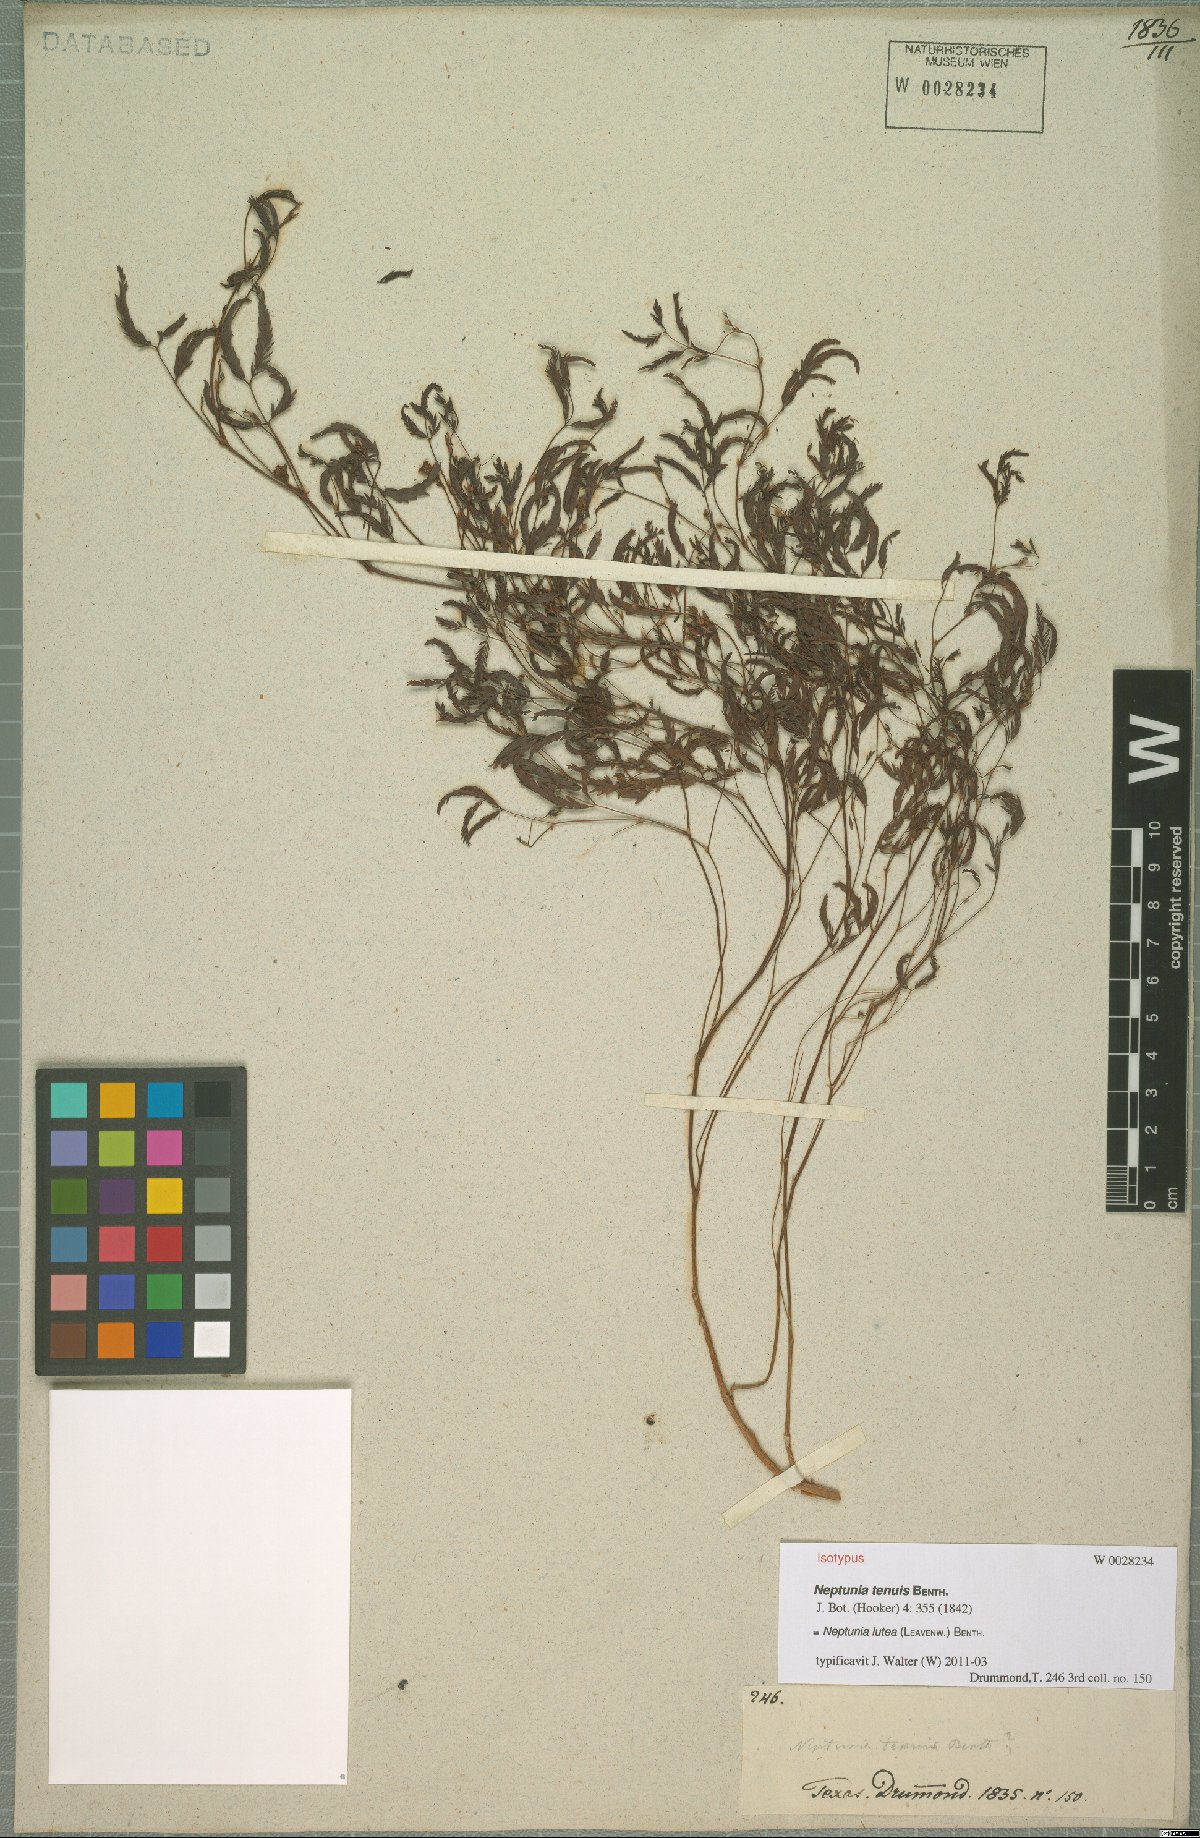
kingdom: Plantae
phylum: Tracheophyta
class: Magnoliopsida
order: Fabales
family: Fabaceae
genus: Neptunia
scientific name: Neptunia lutea
